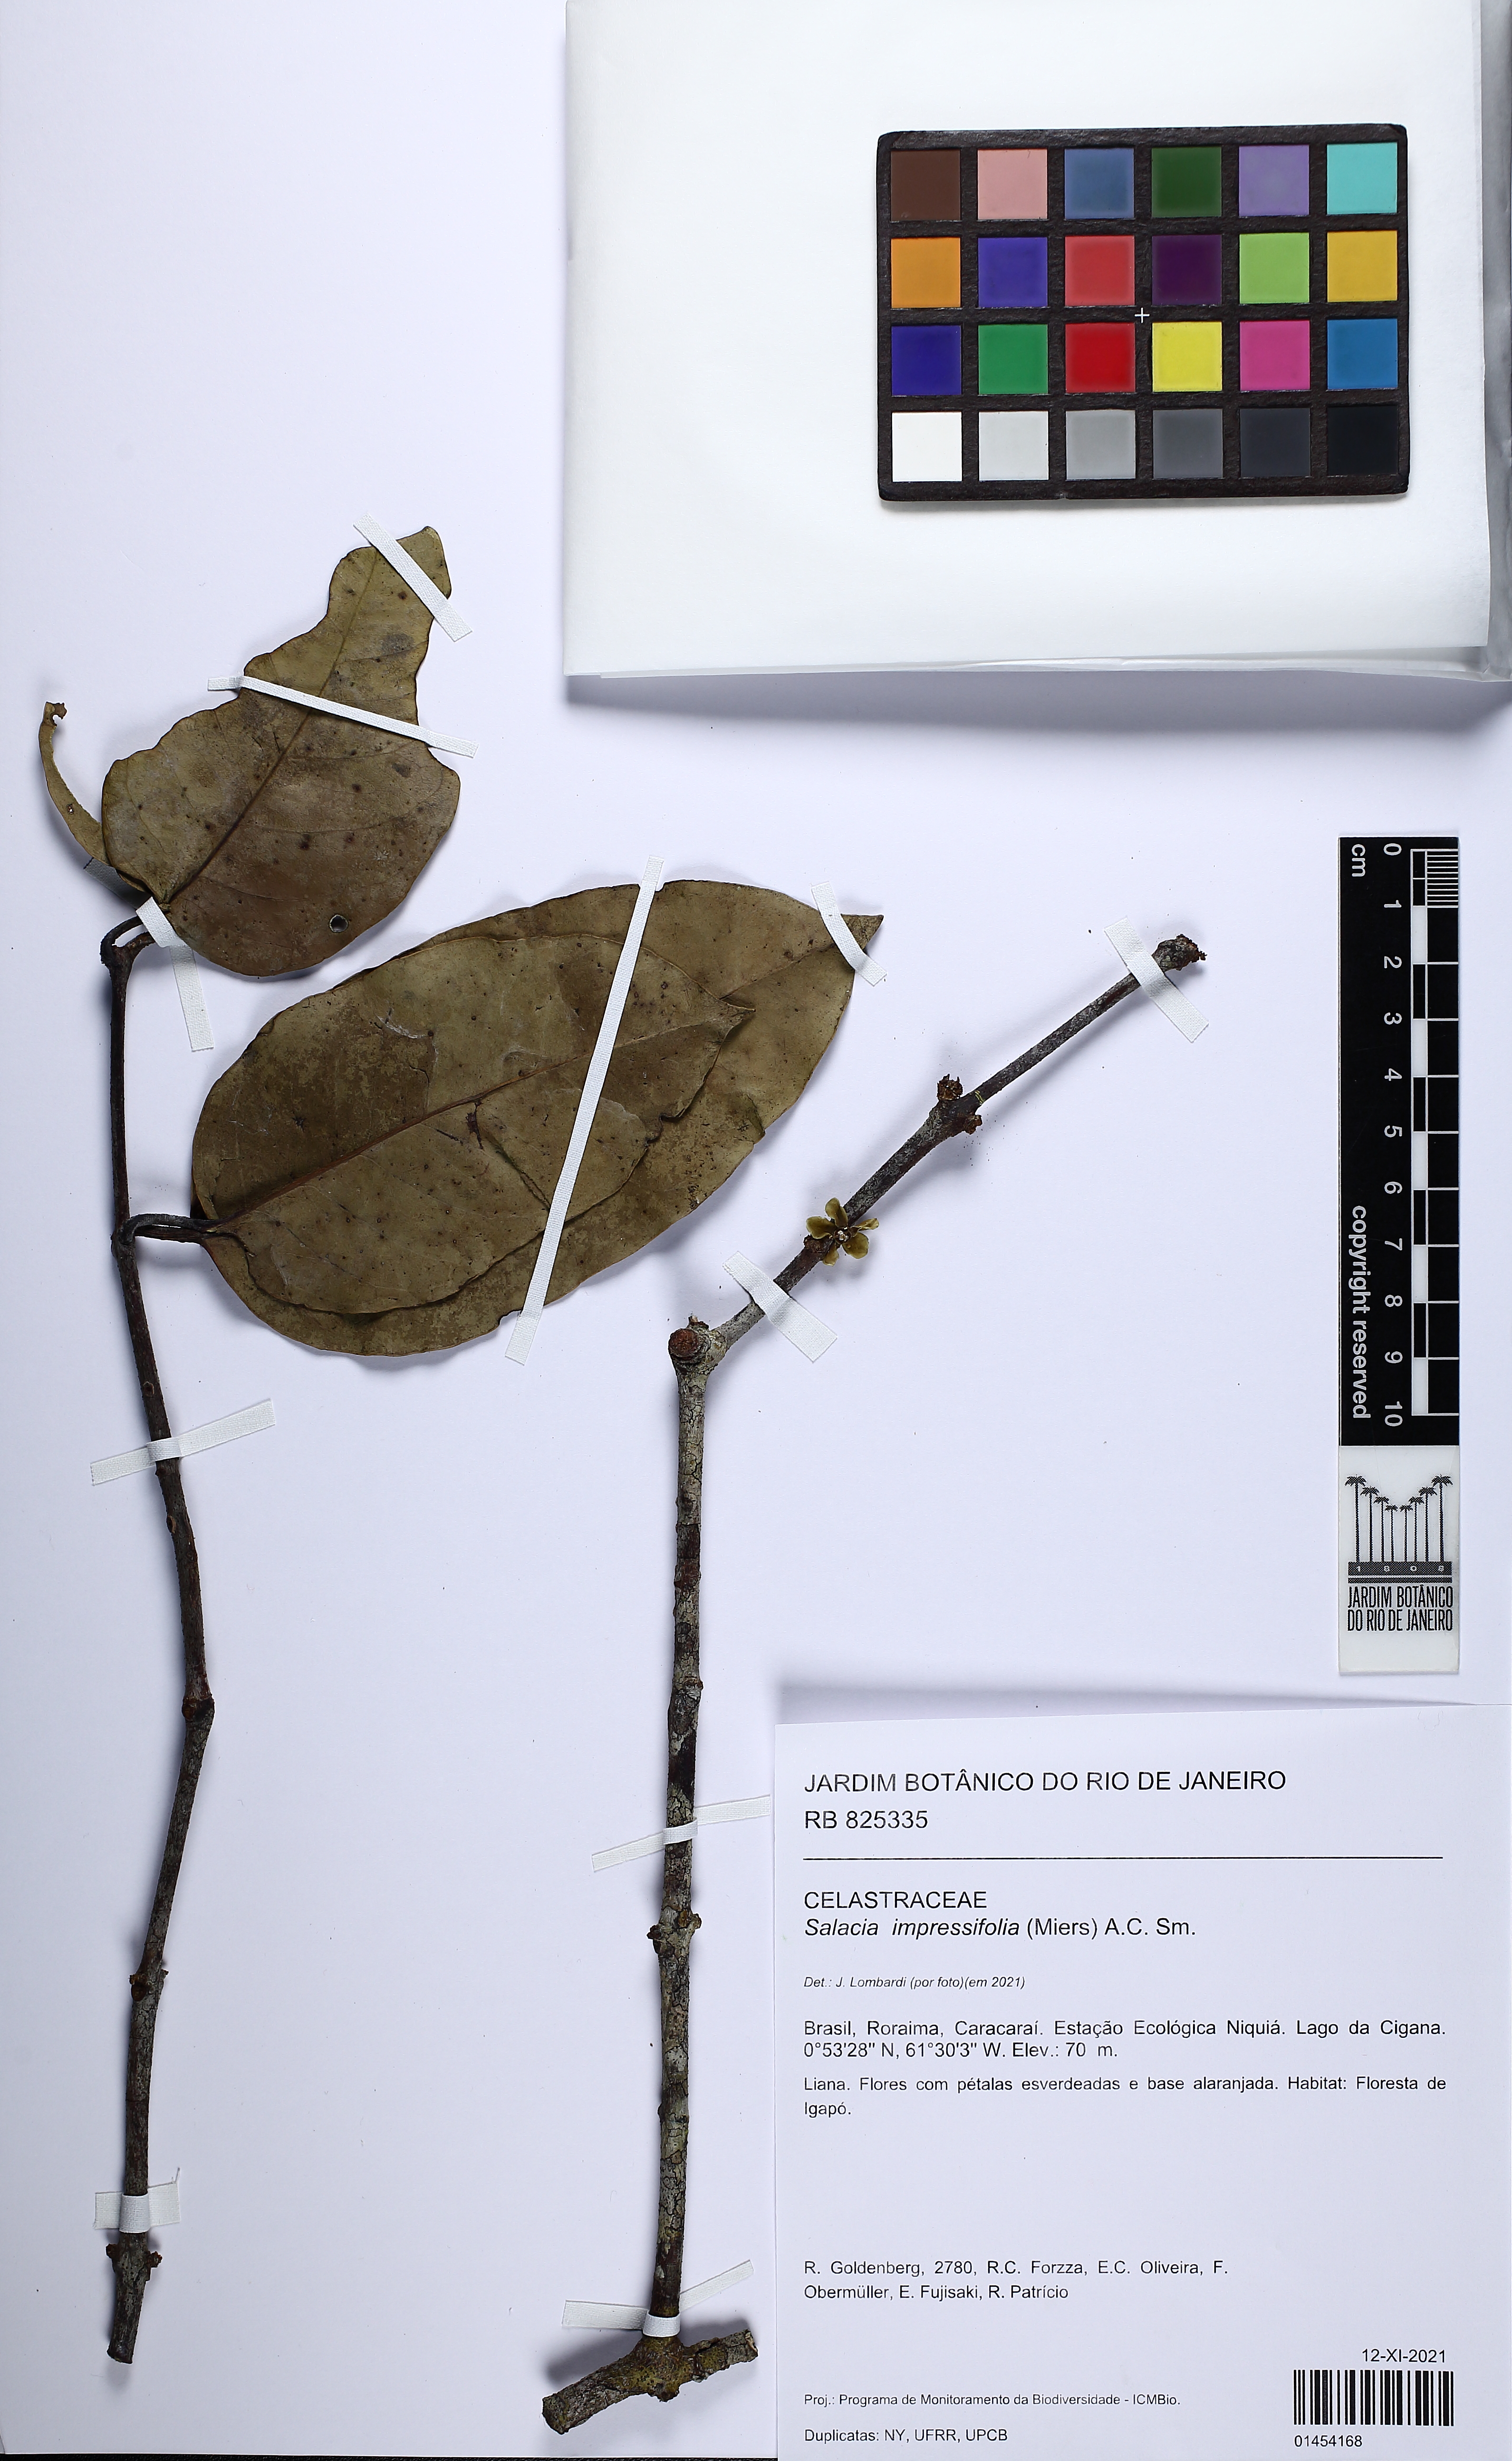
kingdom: Plantae
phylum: Tracheophyta
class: Magnoliopsida
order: Celastrales
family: Celastraceae
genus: Salacia
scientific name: Salacia impressifolia
